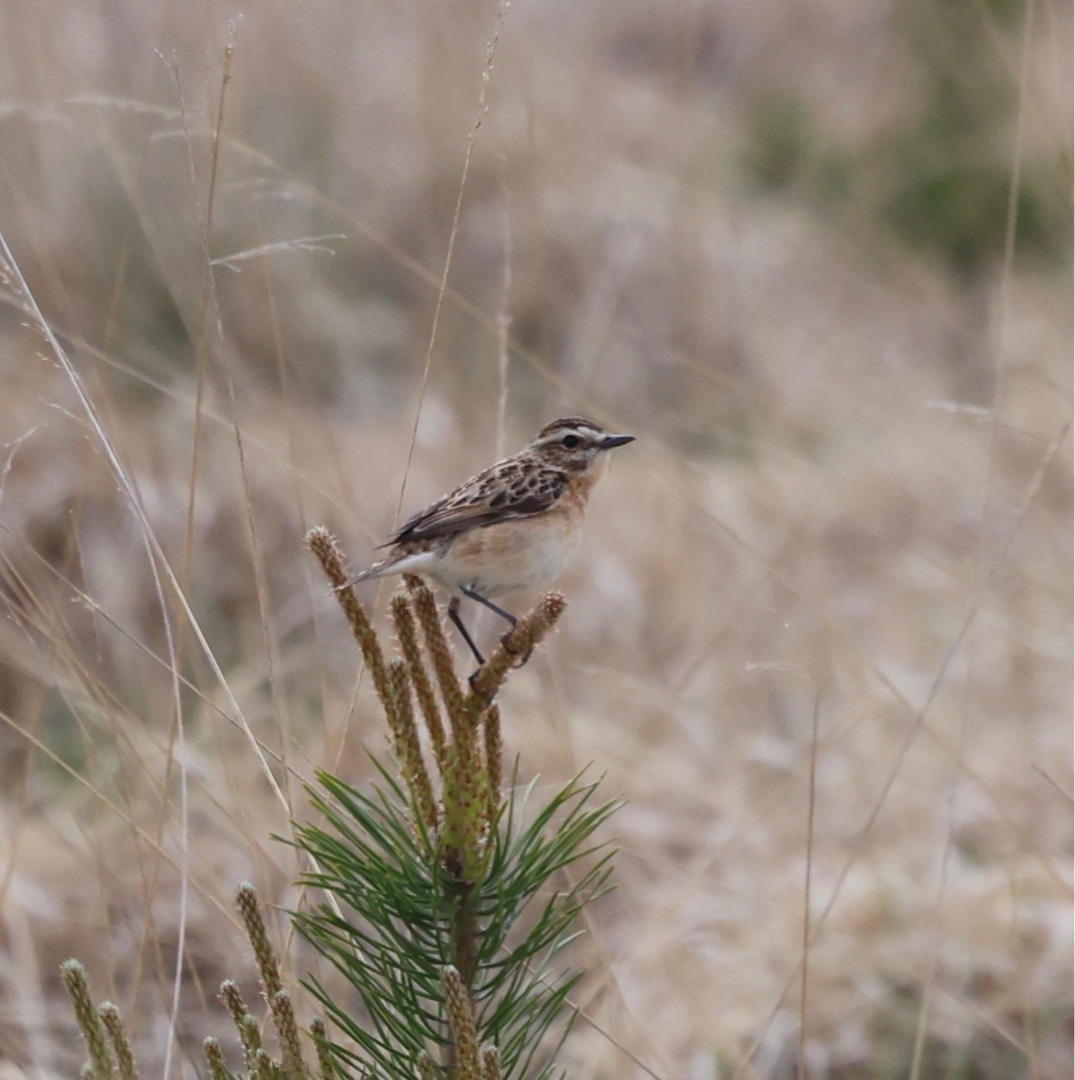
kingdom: Animalia
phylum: Chordata
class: Aves
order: Passeriformes
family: Muscicapidae
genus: Saxicola
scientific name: Saxicola rubetra
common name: Bynkefugl
